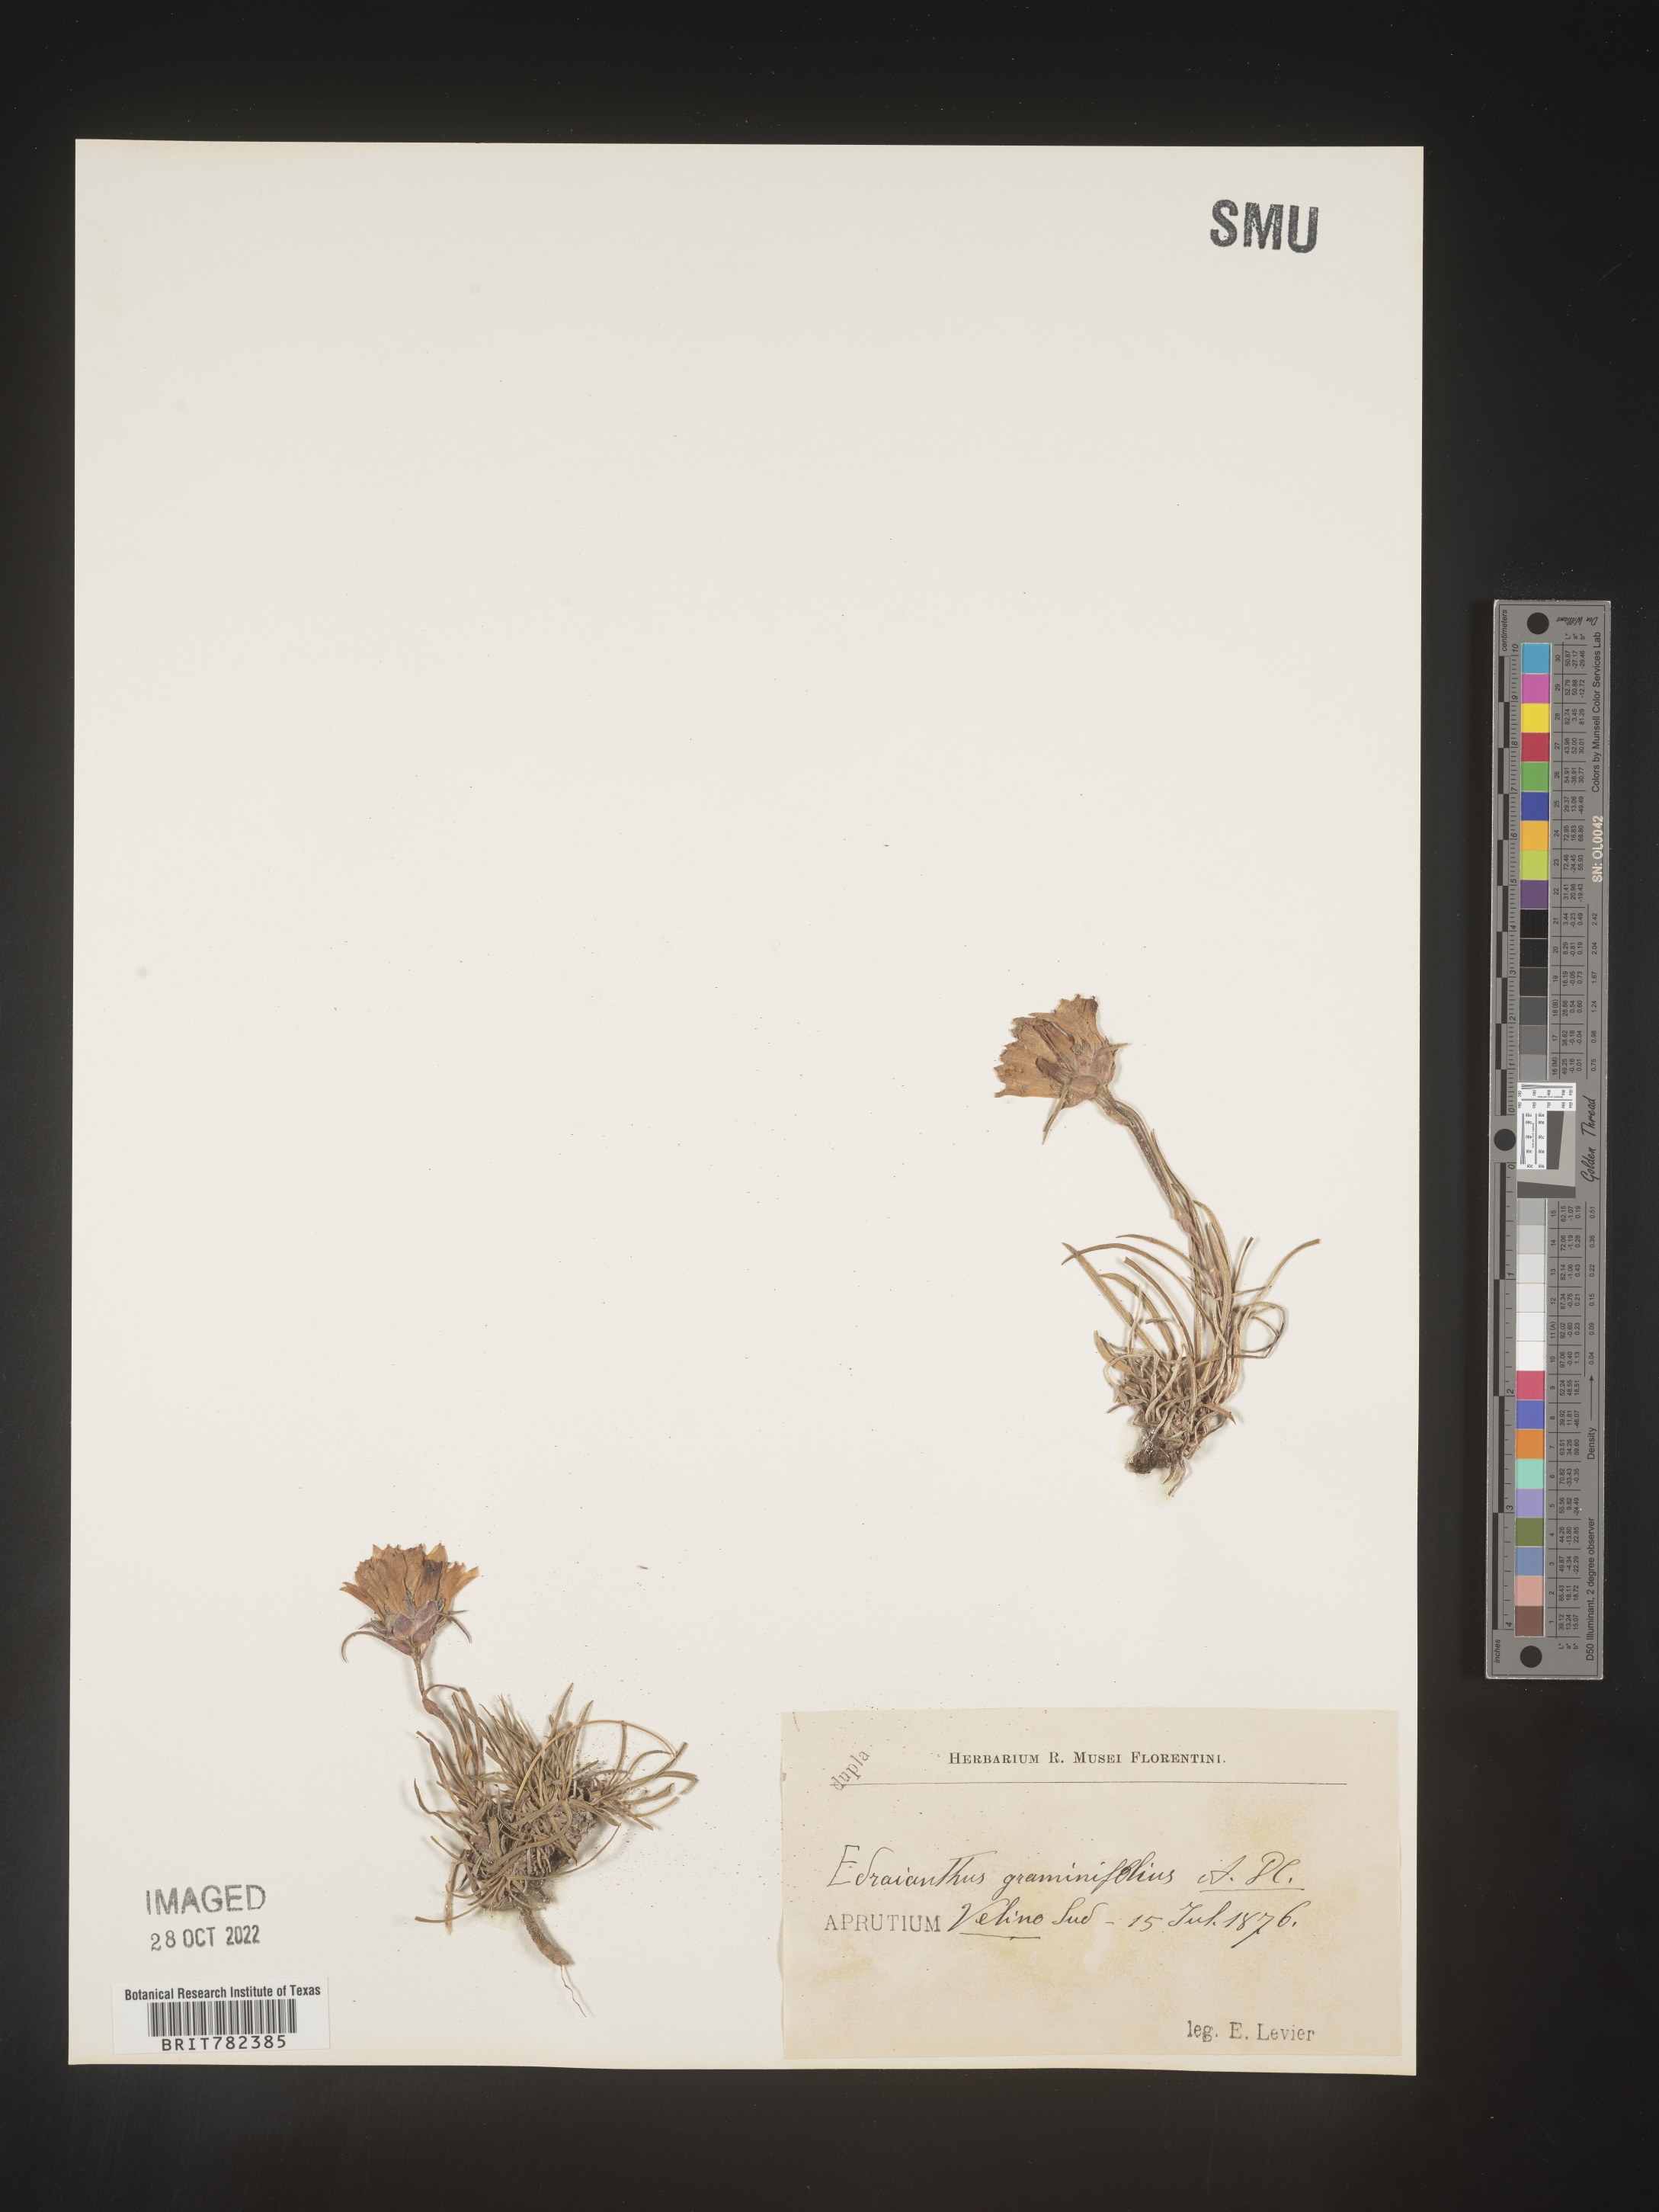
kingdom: Plantae
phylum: Tracheophyta
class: Magnoliopsida
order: Asterales
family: Campanulaceae
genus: Edraianthus
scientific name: Edraianthus
